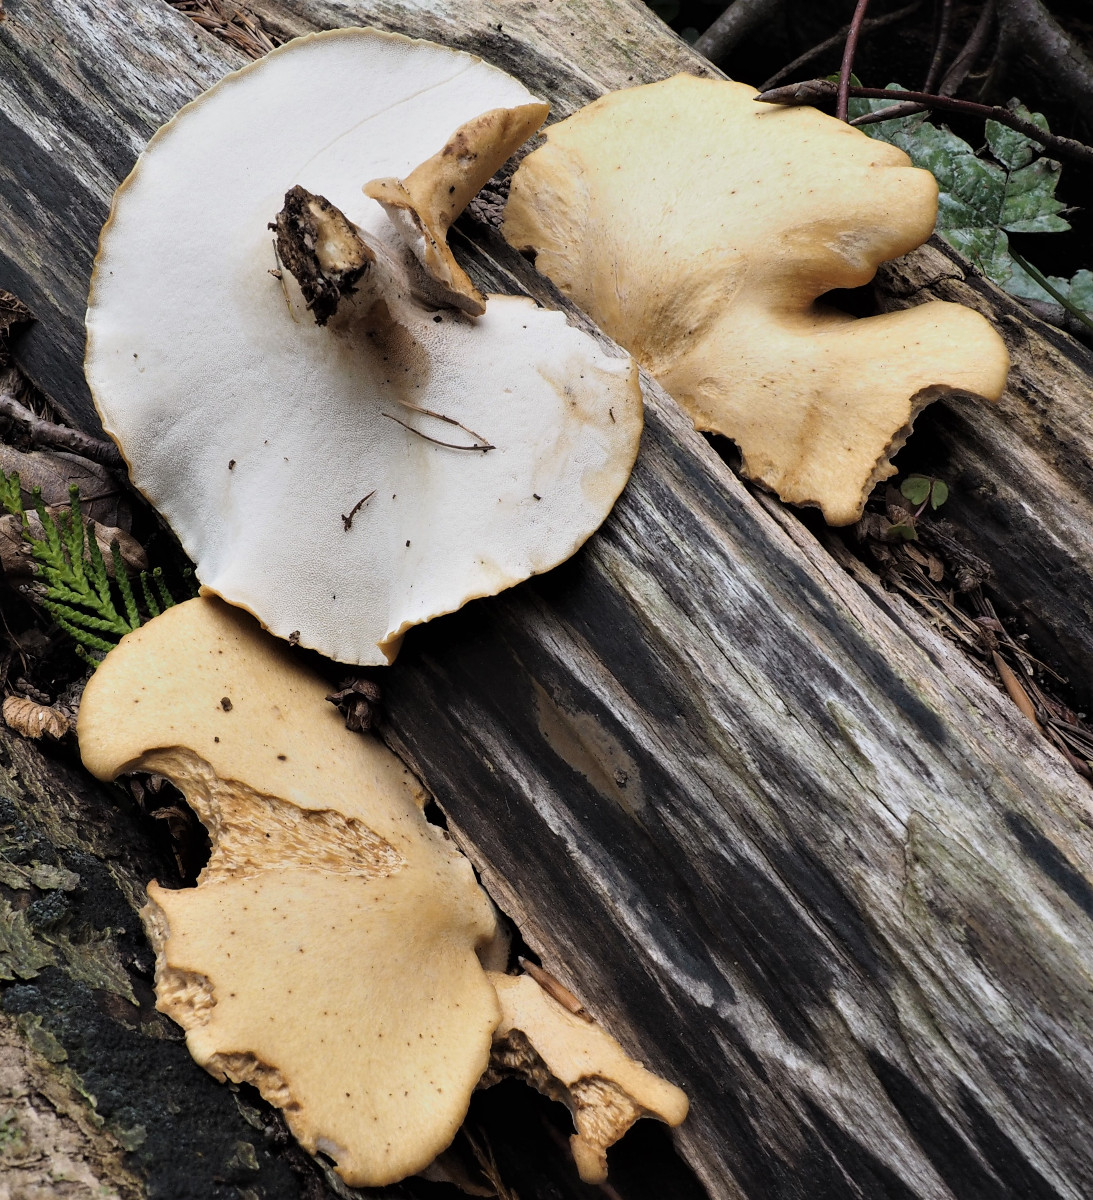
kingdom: Fungi
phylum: Basidiomycota
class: Agaricomycetes
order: Polyporales
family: Polyporaceae
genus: Cerioporus
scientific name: Cerioporus varius
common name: foranderlig stilkporesvamp
